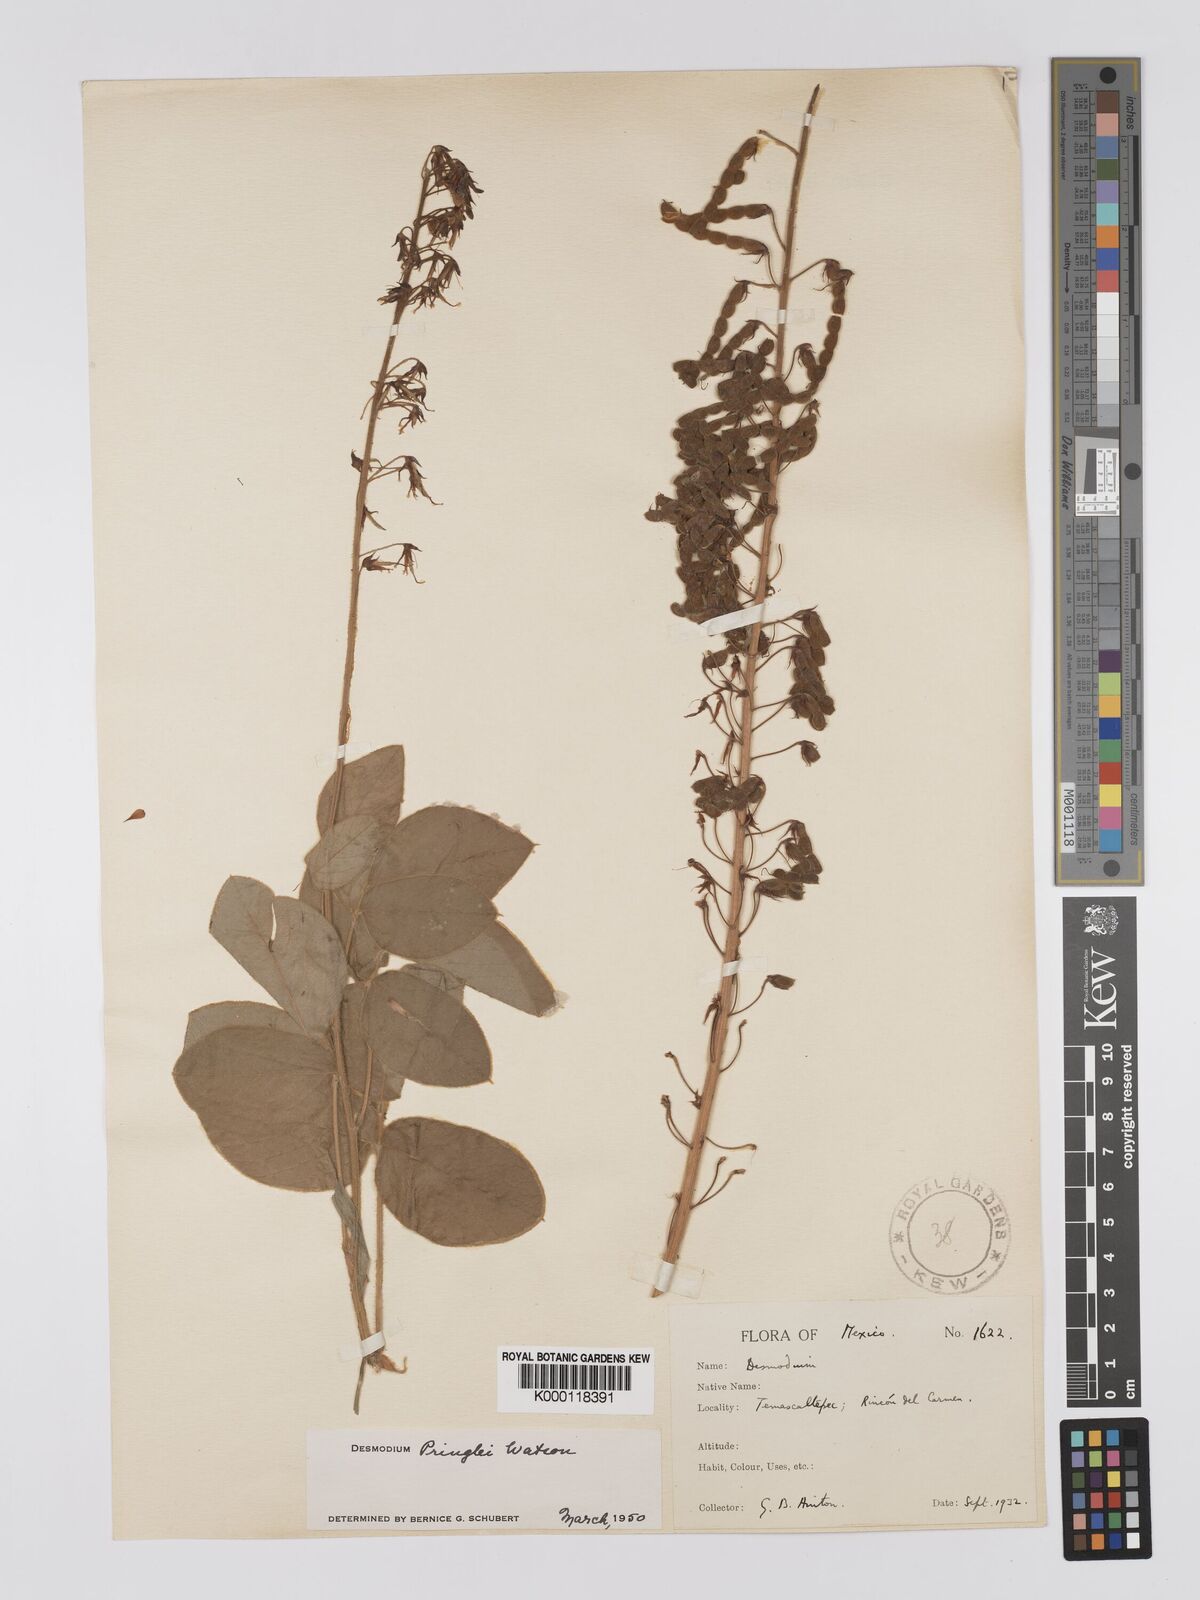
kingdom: Plantae
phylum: Tracheophyta
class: Magnoliopsida
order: Fabales
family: Fabaceae
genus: Desmodium
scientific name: Desmodium pringlei
